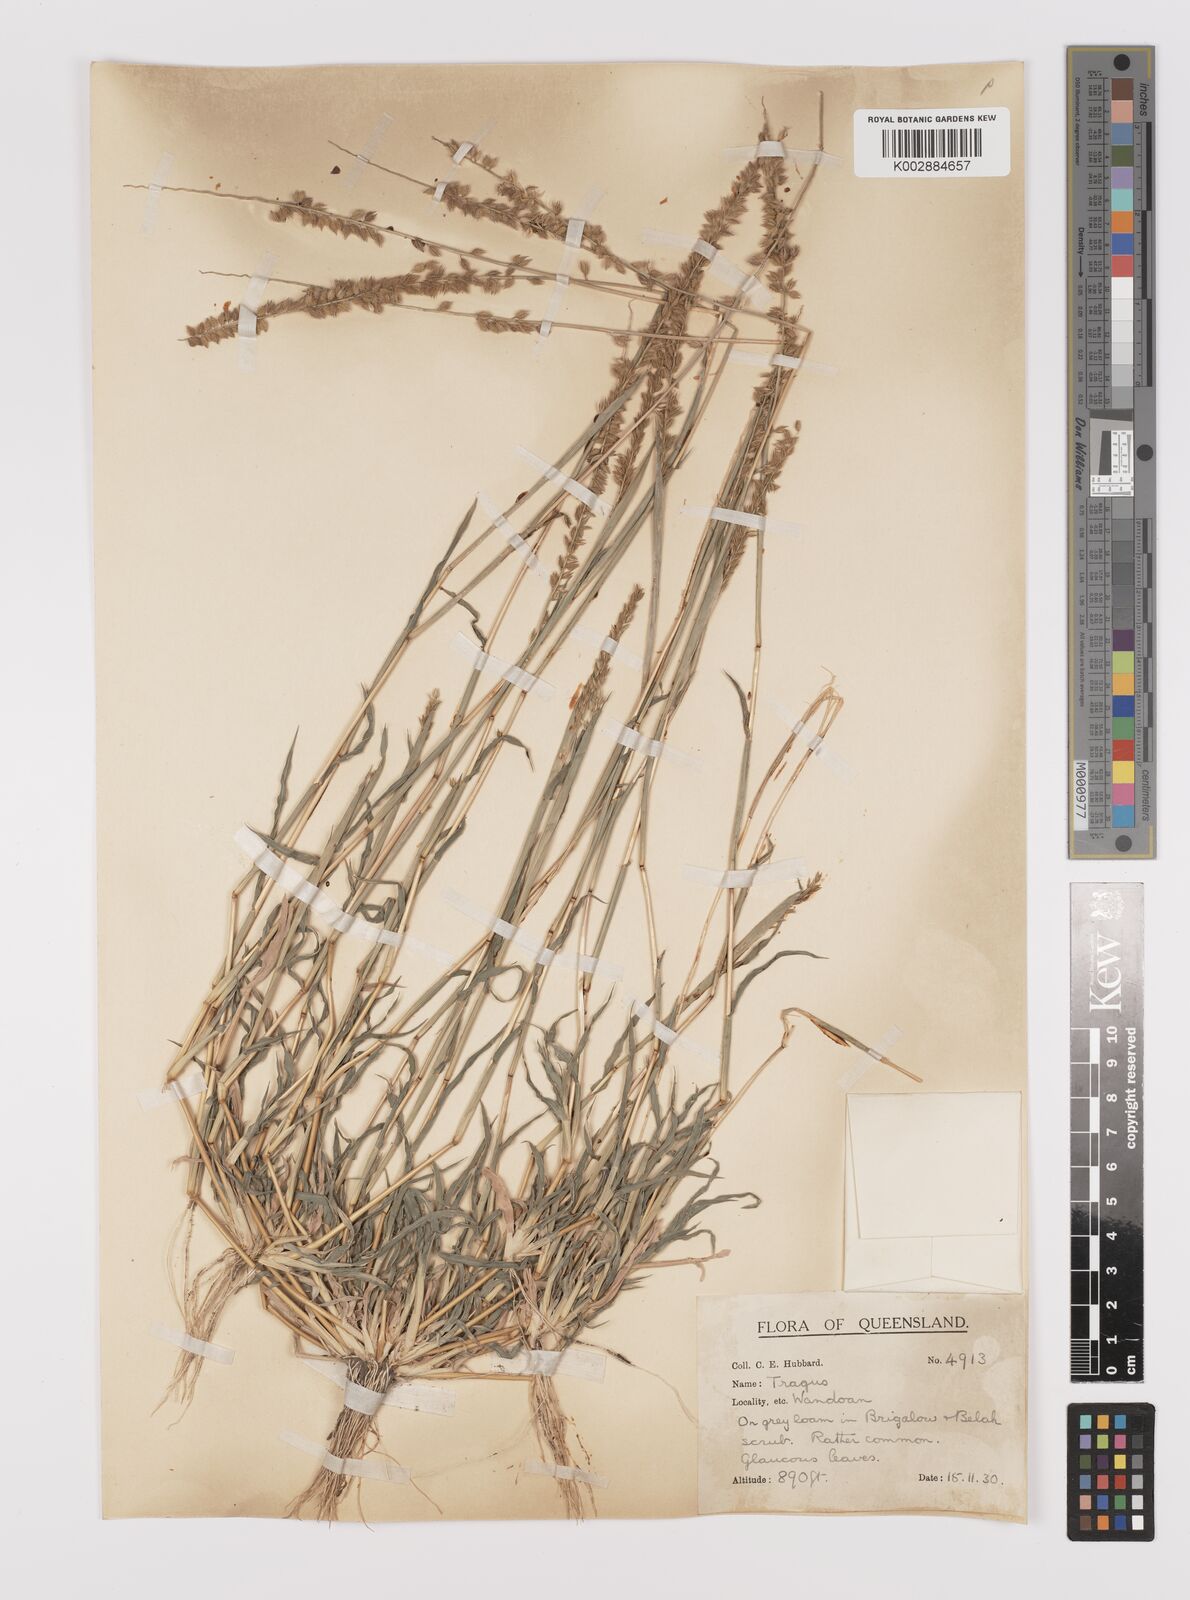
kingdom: Plantae
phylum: Tracheophyta
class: Liliopsida
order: Poales
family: Poaceae
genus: Tragus
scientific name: Tragus australianus
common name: Australian bur-grass
